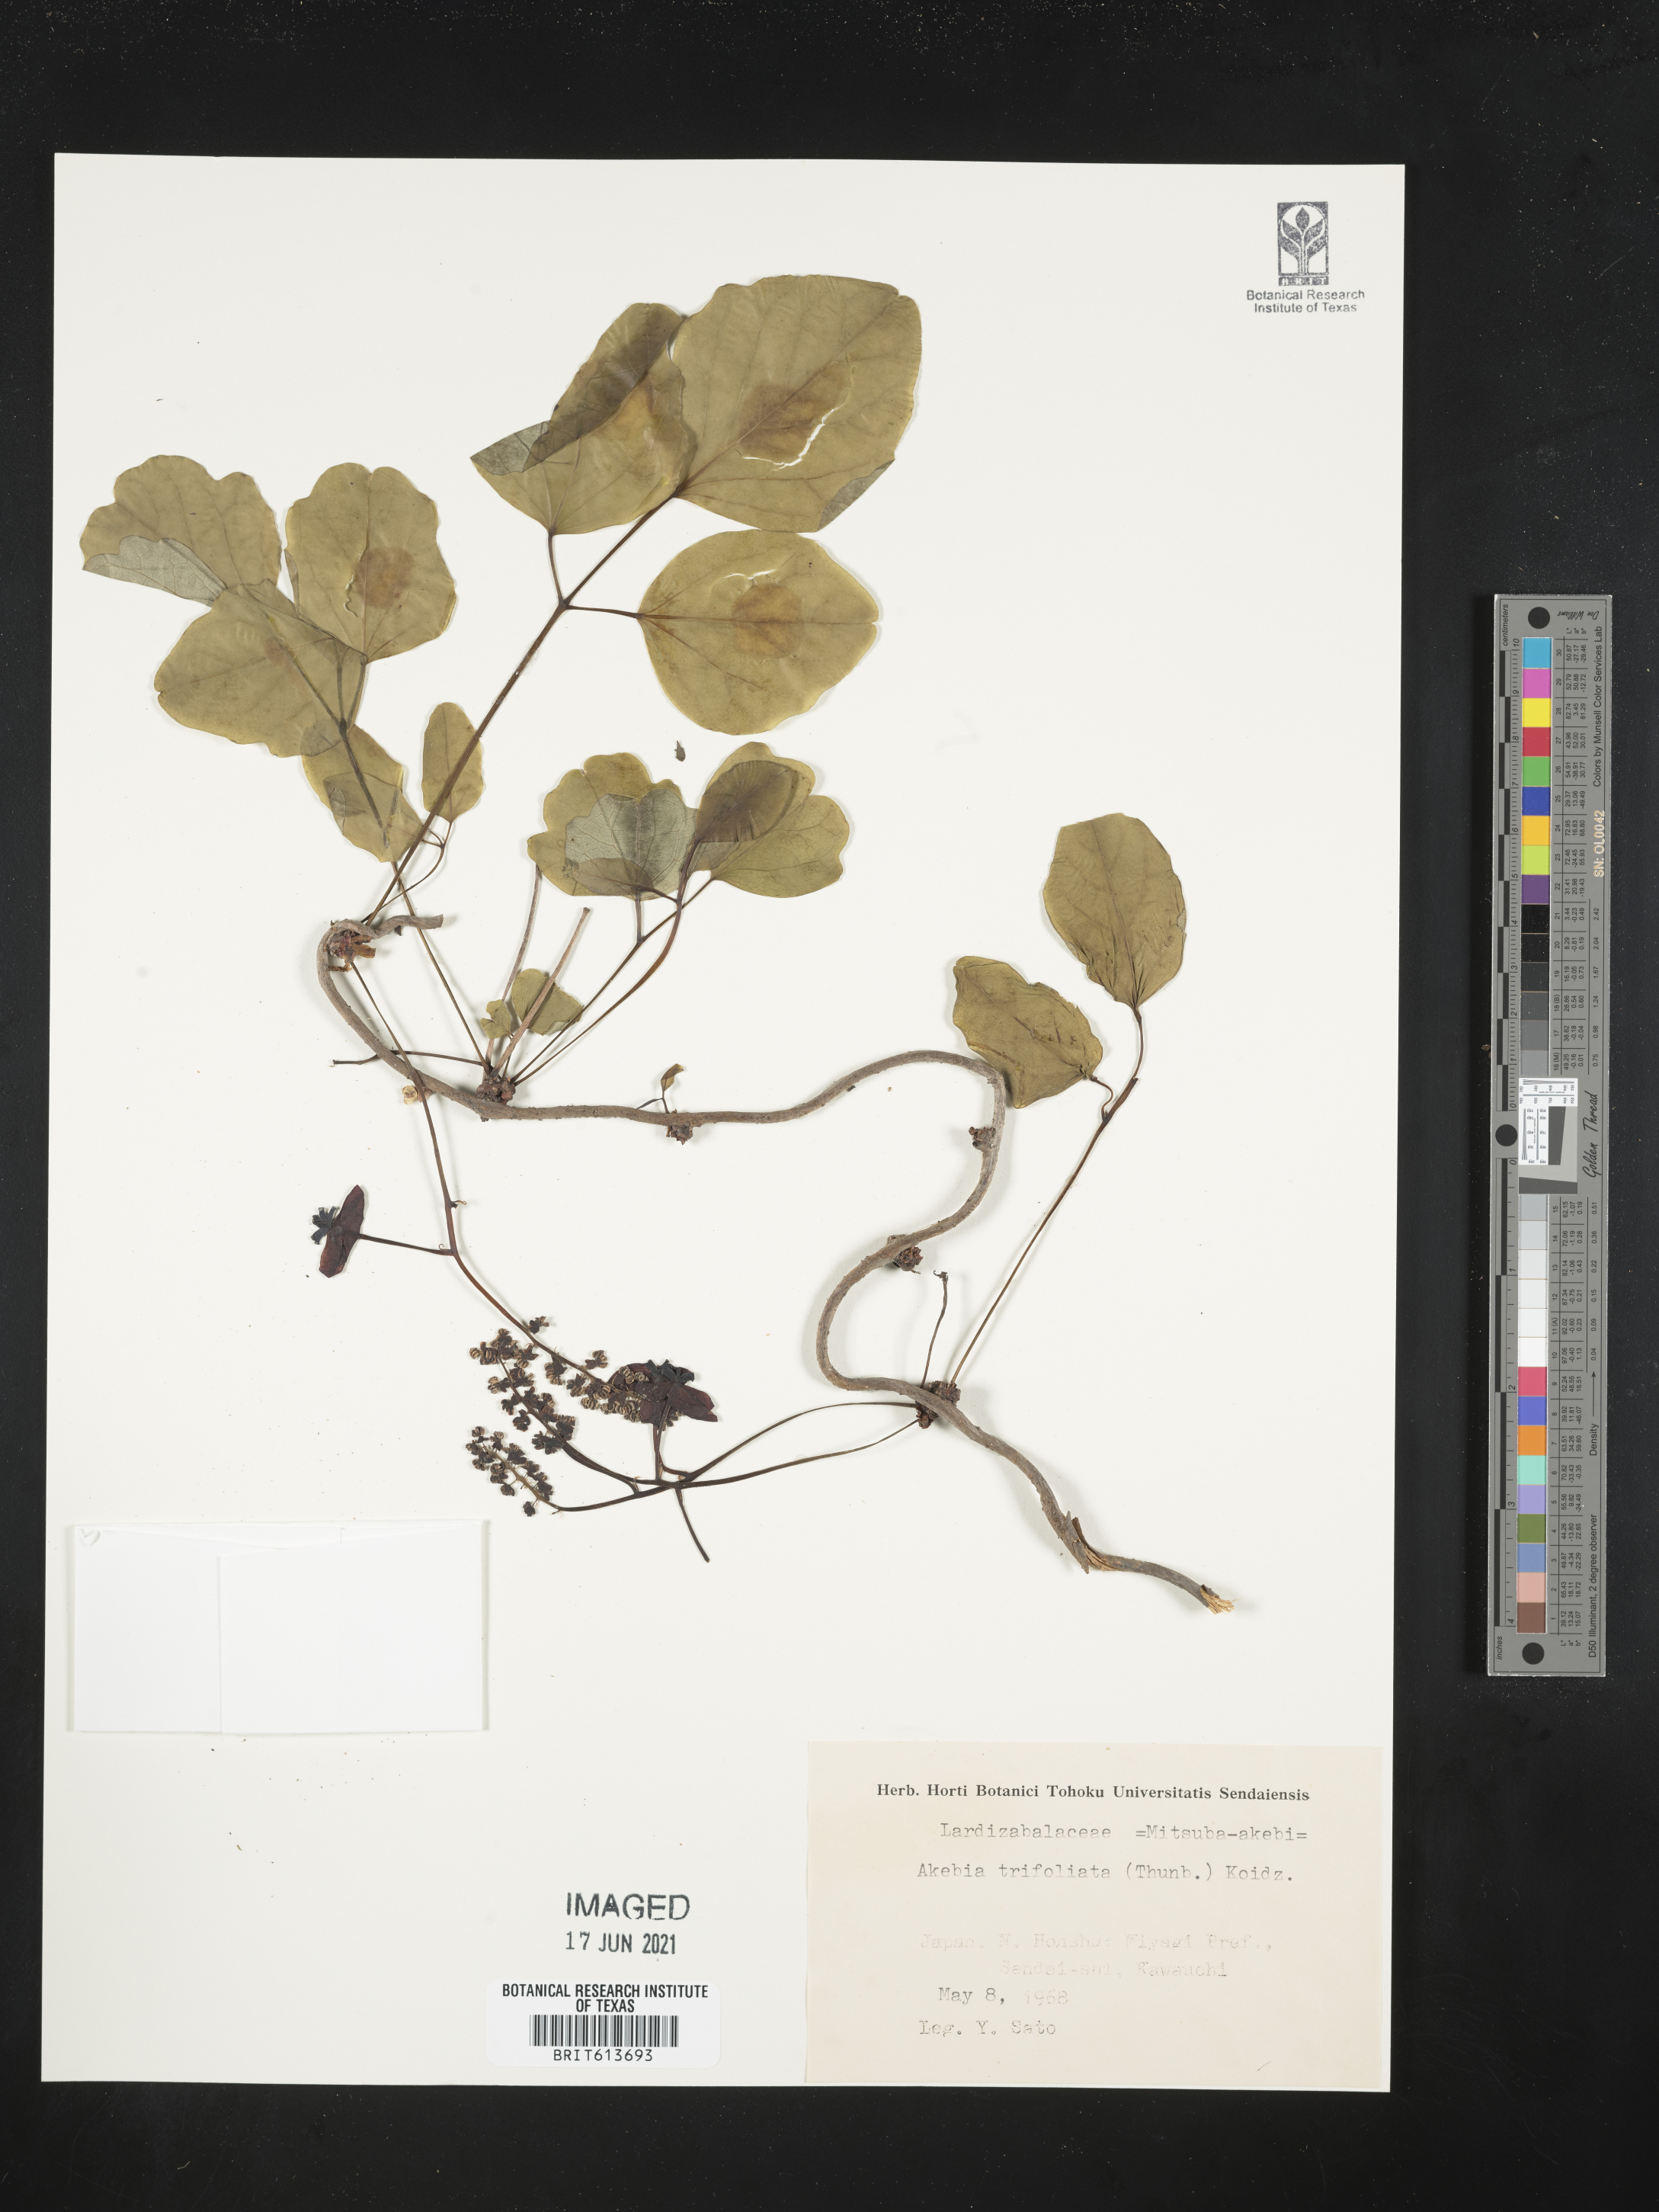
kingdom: Plantae
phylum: Tracheophyta
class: Magnoliopsida
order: Ranunculales
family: Lardizabalaceae
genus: Akebia
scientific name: Akebia trifoliata
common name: Chocolate-vine
